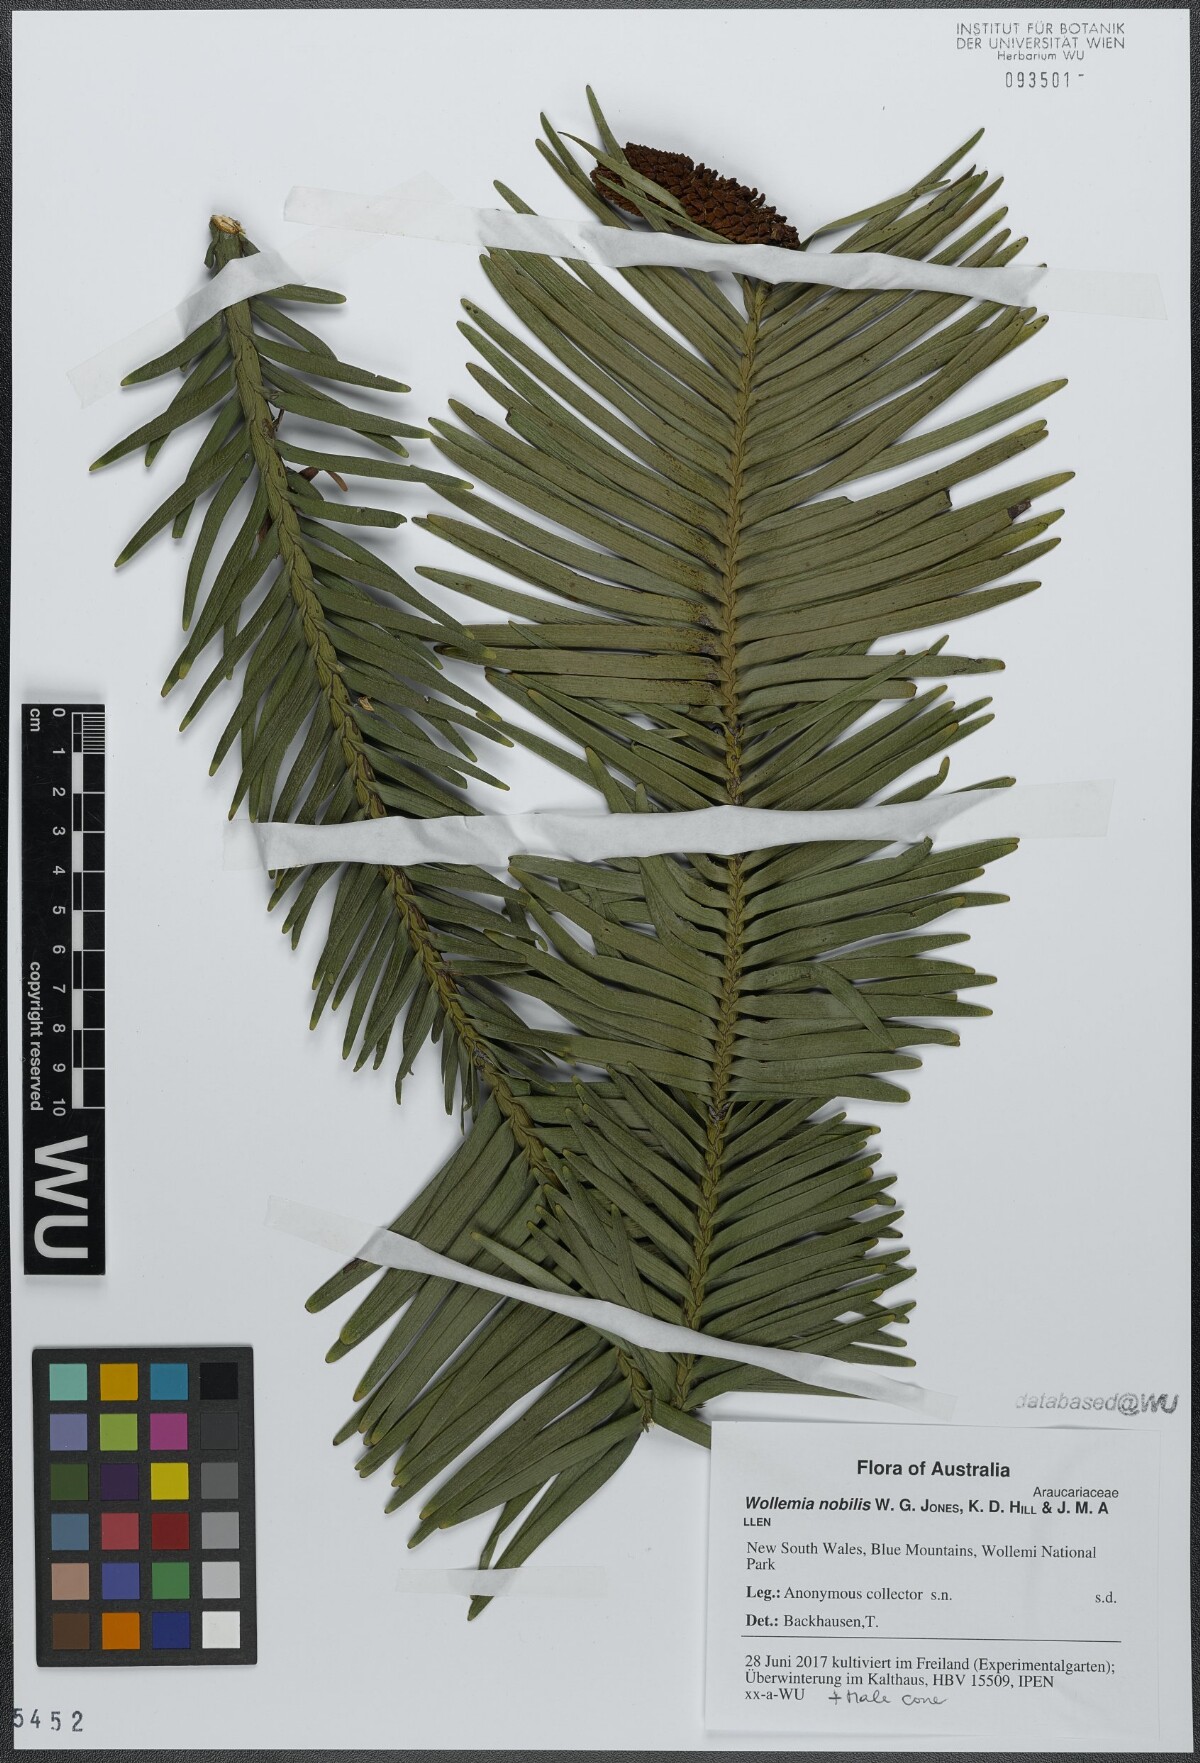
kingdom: Plantae
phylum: Tracheophyta
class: Pinopsida
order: Pinales
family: Araucariaceae
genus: Wollemia
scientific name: Wollemia nobilis
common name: Wollemi pine
